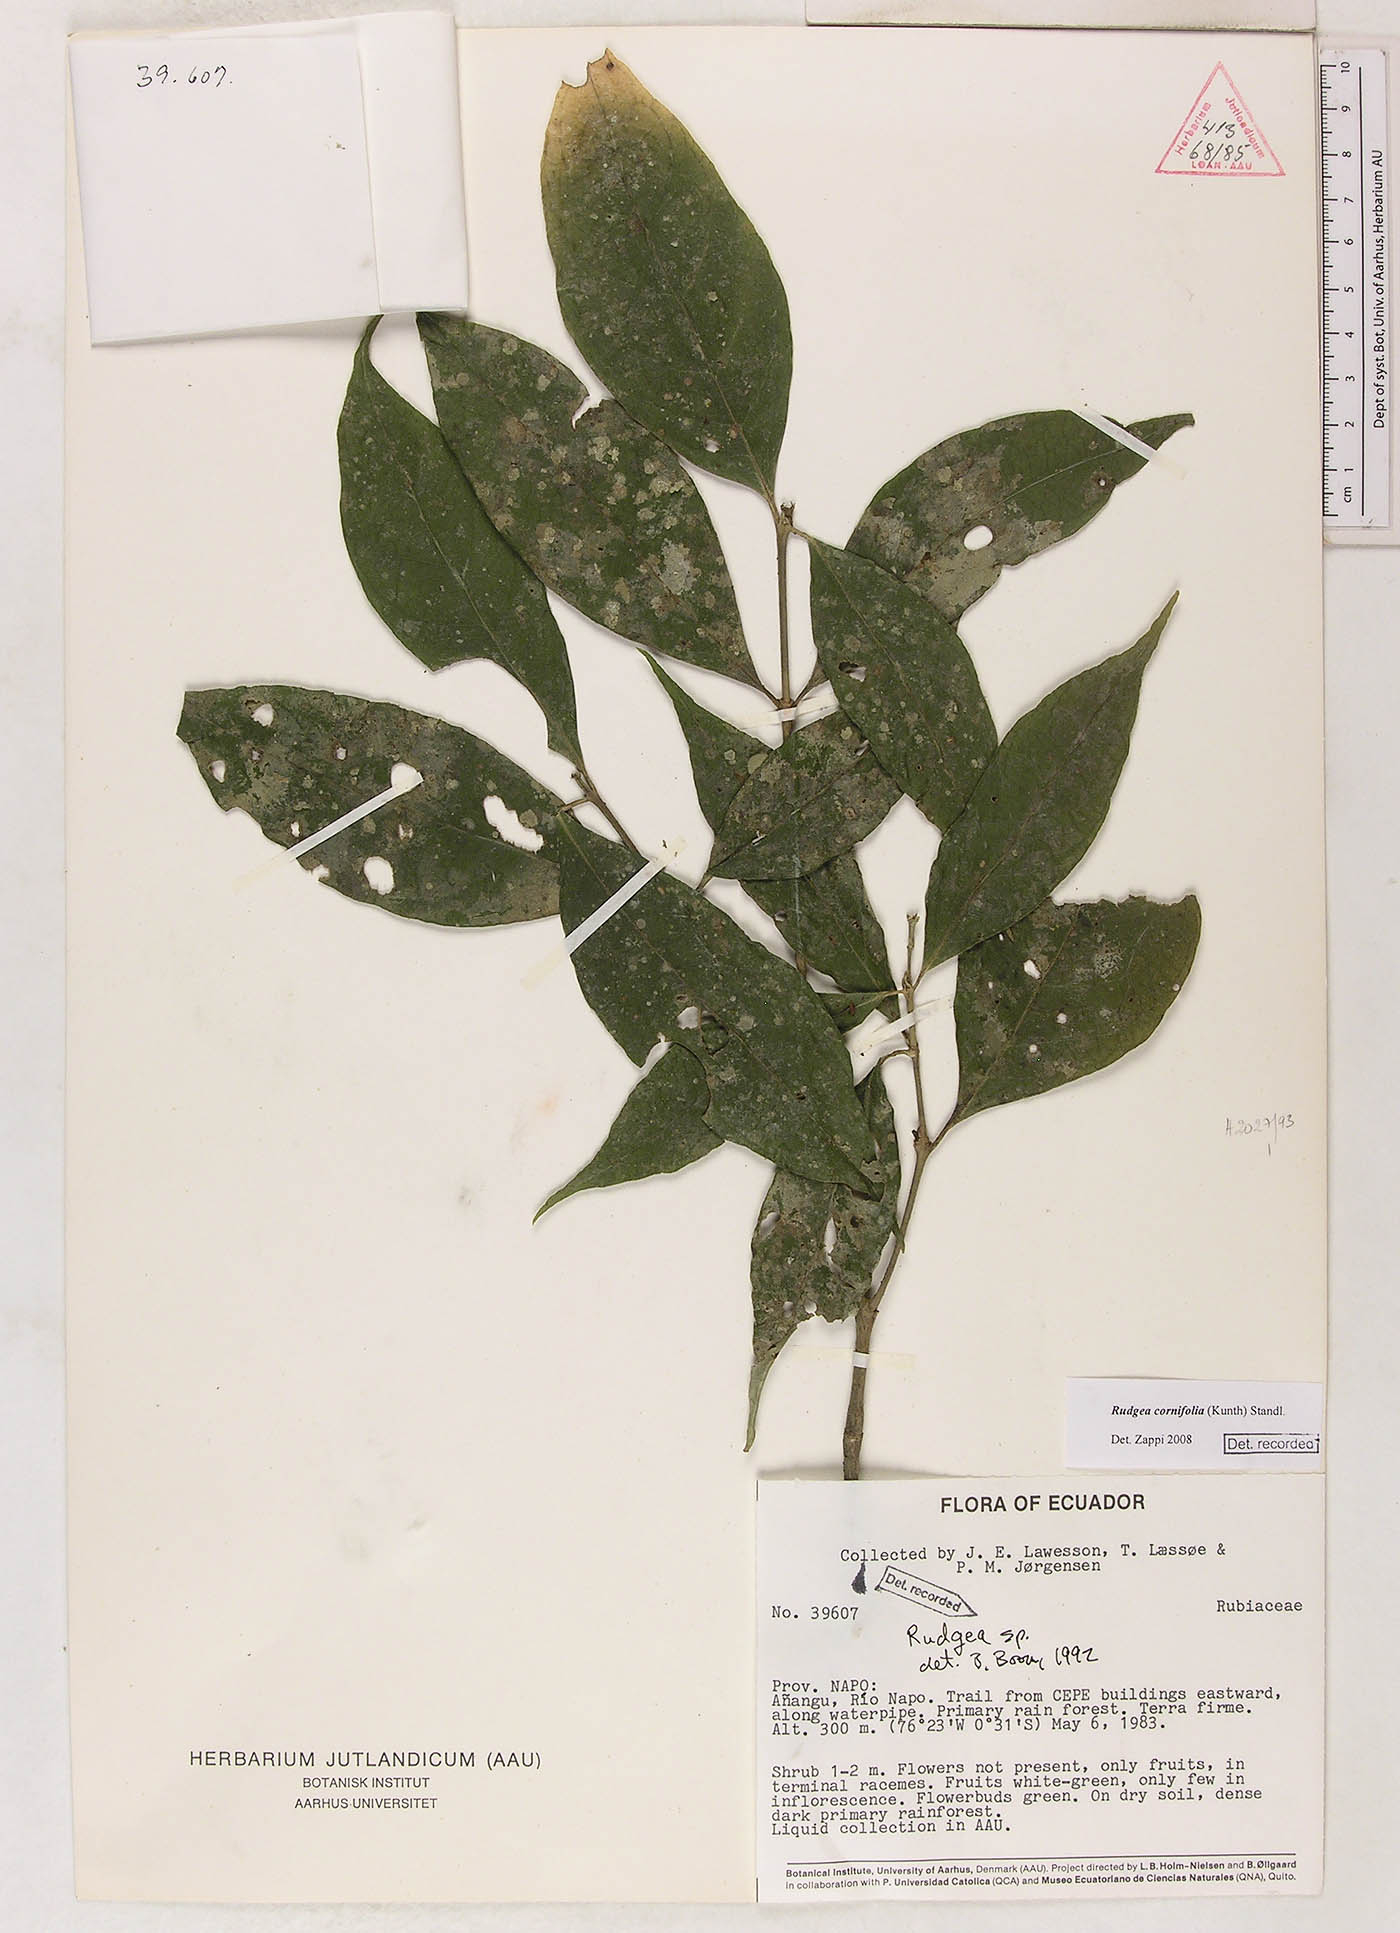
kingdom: Plantae
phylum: Tracheophyta
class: Magnoliopsida
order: Gentianales
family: Rubiaceae
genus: Rudgea
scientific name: Rudgea cornifolia
